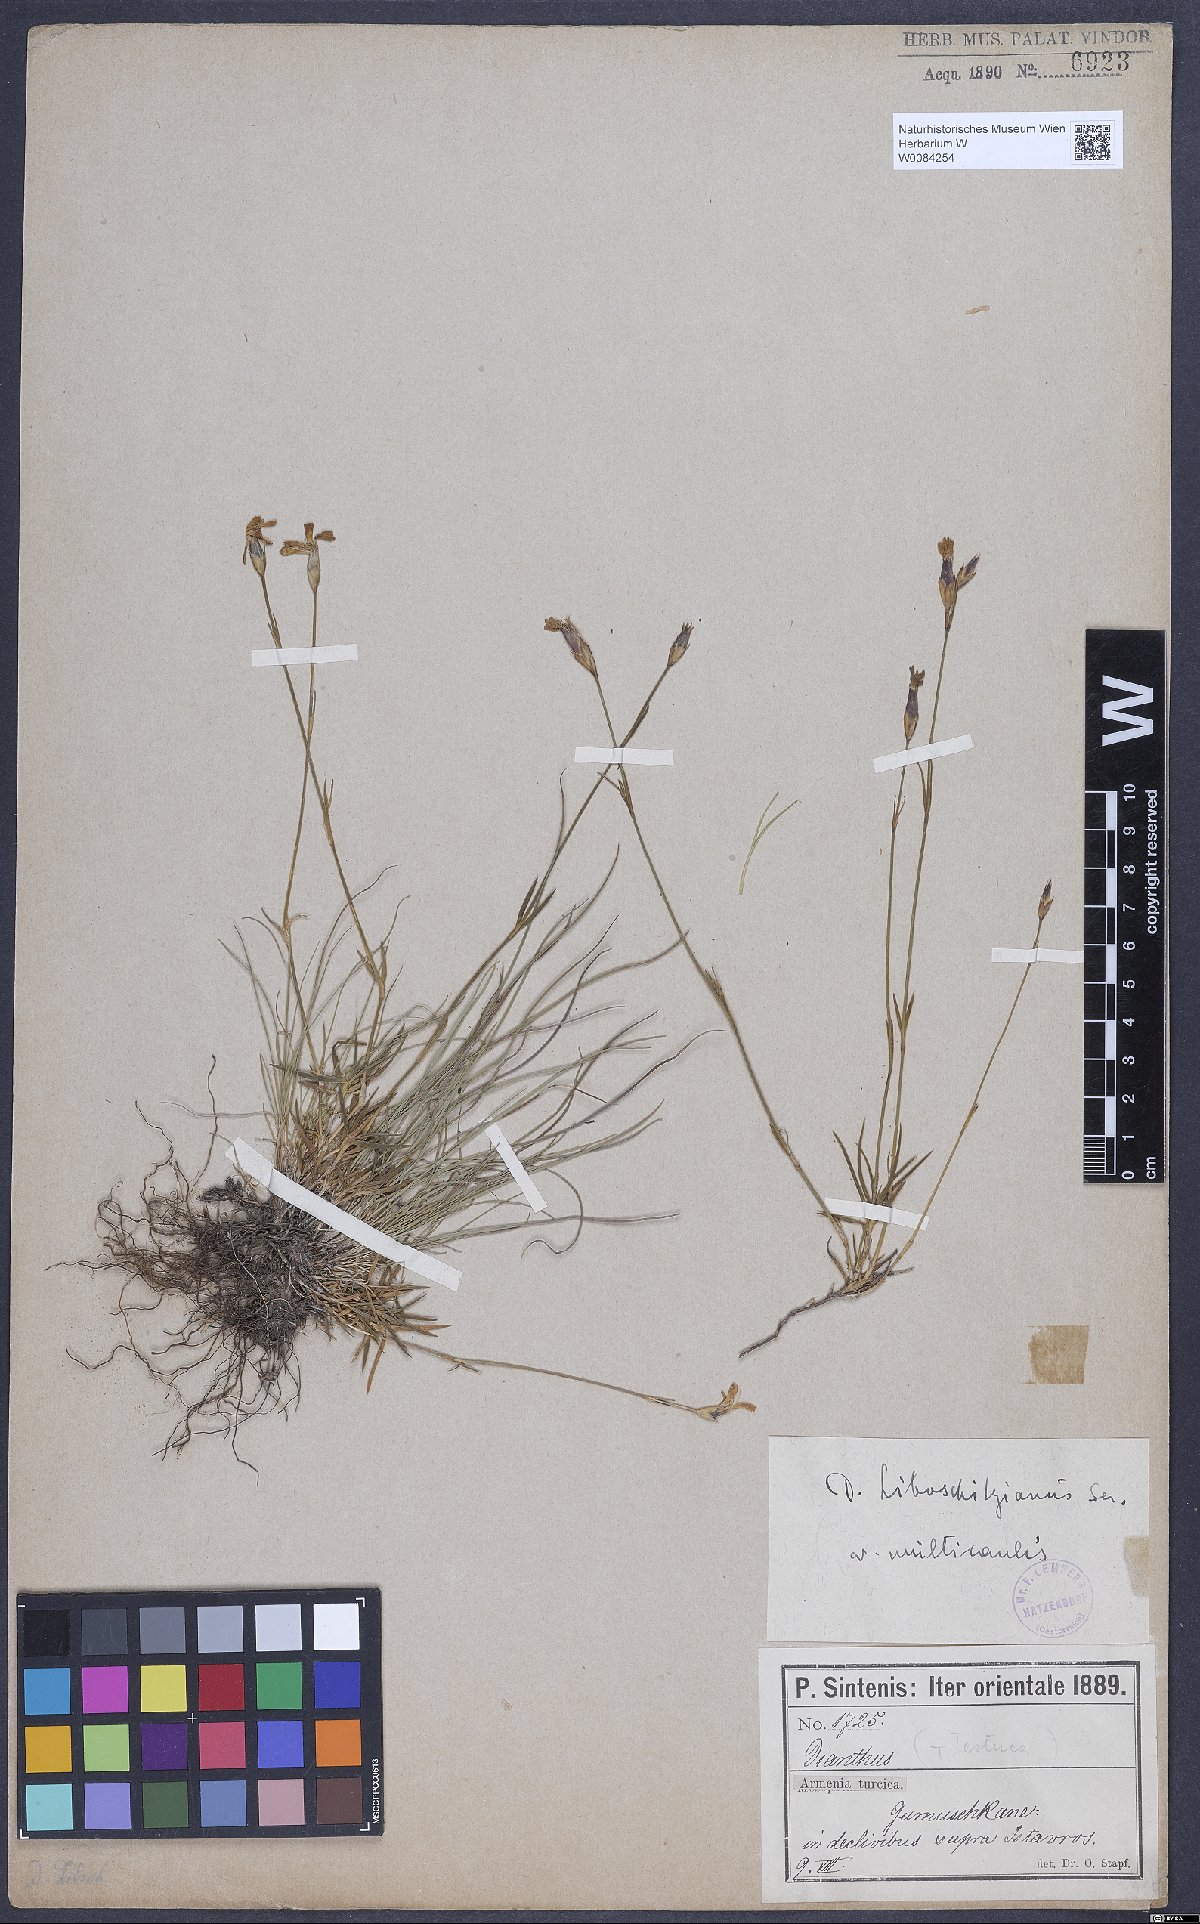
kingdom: Plantae
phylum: Tracheophyta
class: Magnoliopsida
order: Caryophyllales
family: Caryophyllaceae
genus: Dianthus
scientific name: Dianthus cretaceus
